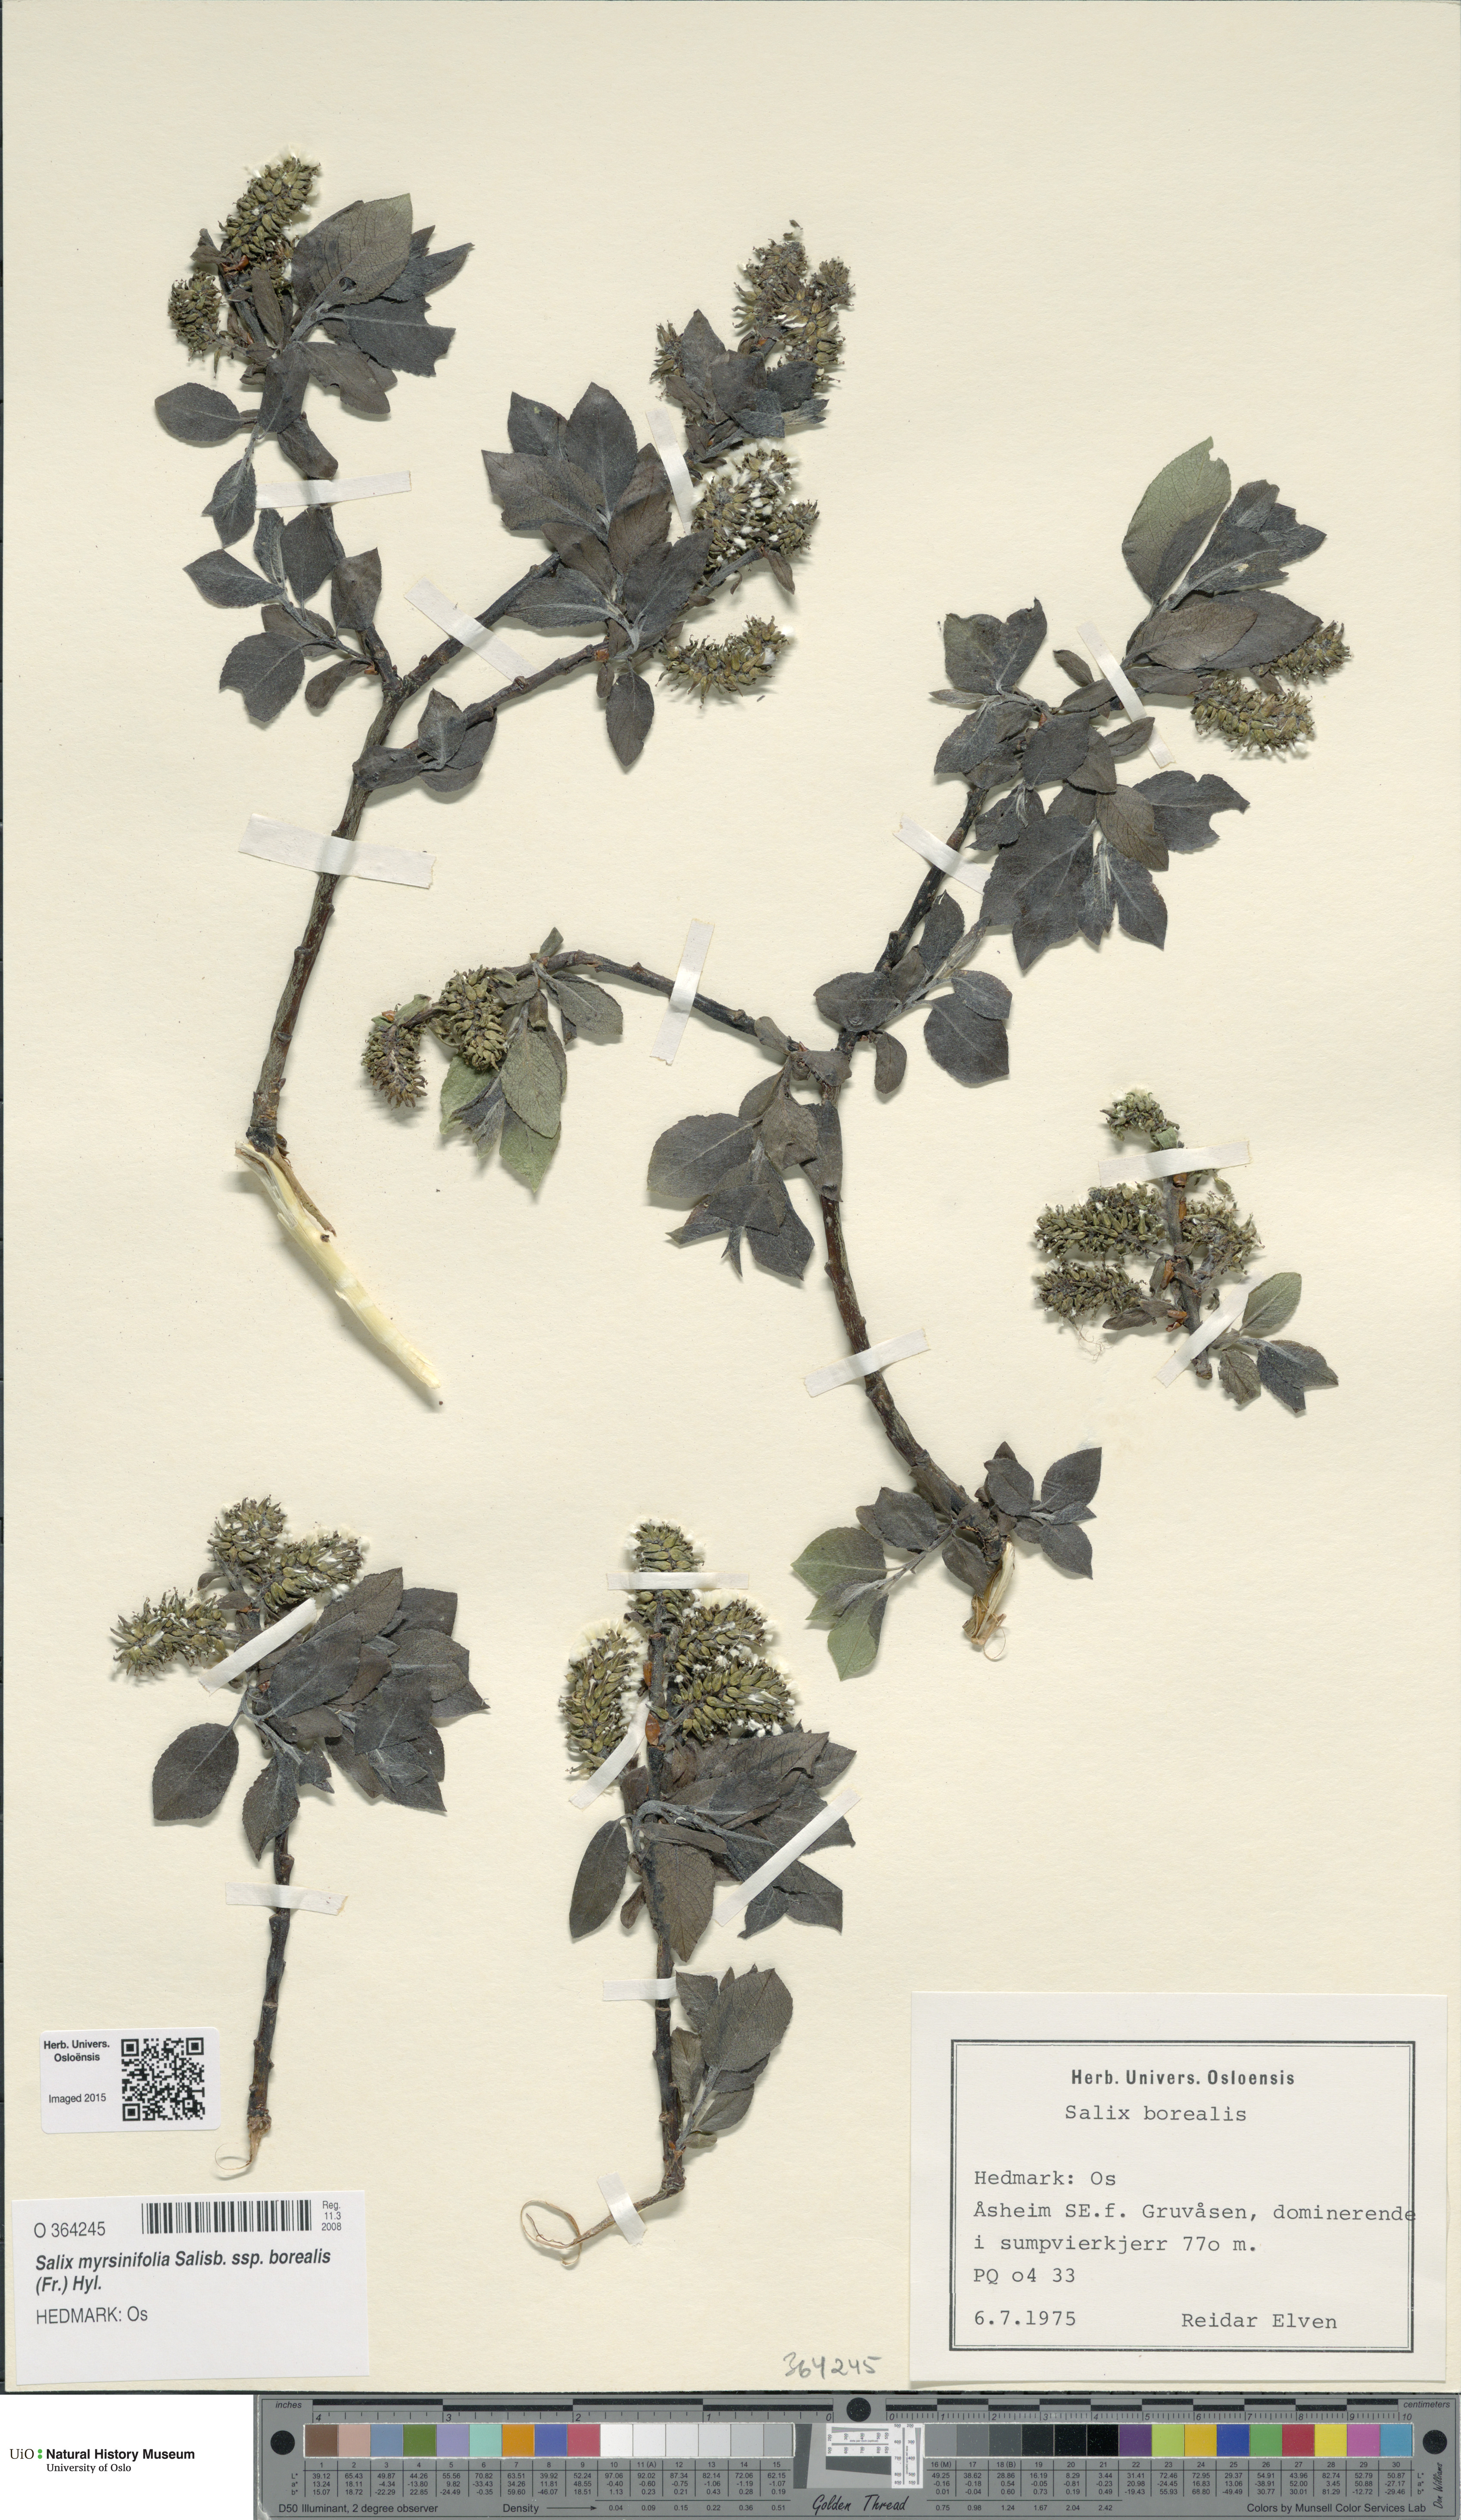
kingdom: Plantae
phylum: Tracheophyta
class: Magnoliopsida
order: Malpighiales
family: Salicaceae
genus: Salix
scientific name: Salix myrsinifolia
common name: Dark-leaved willow
